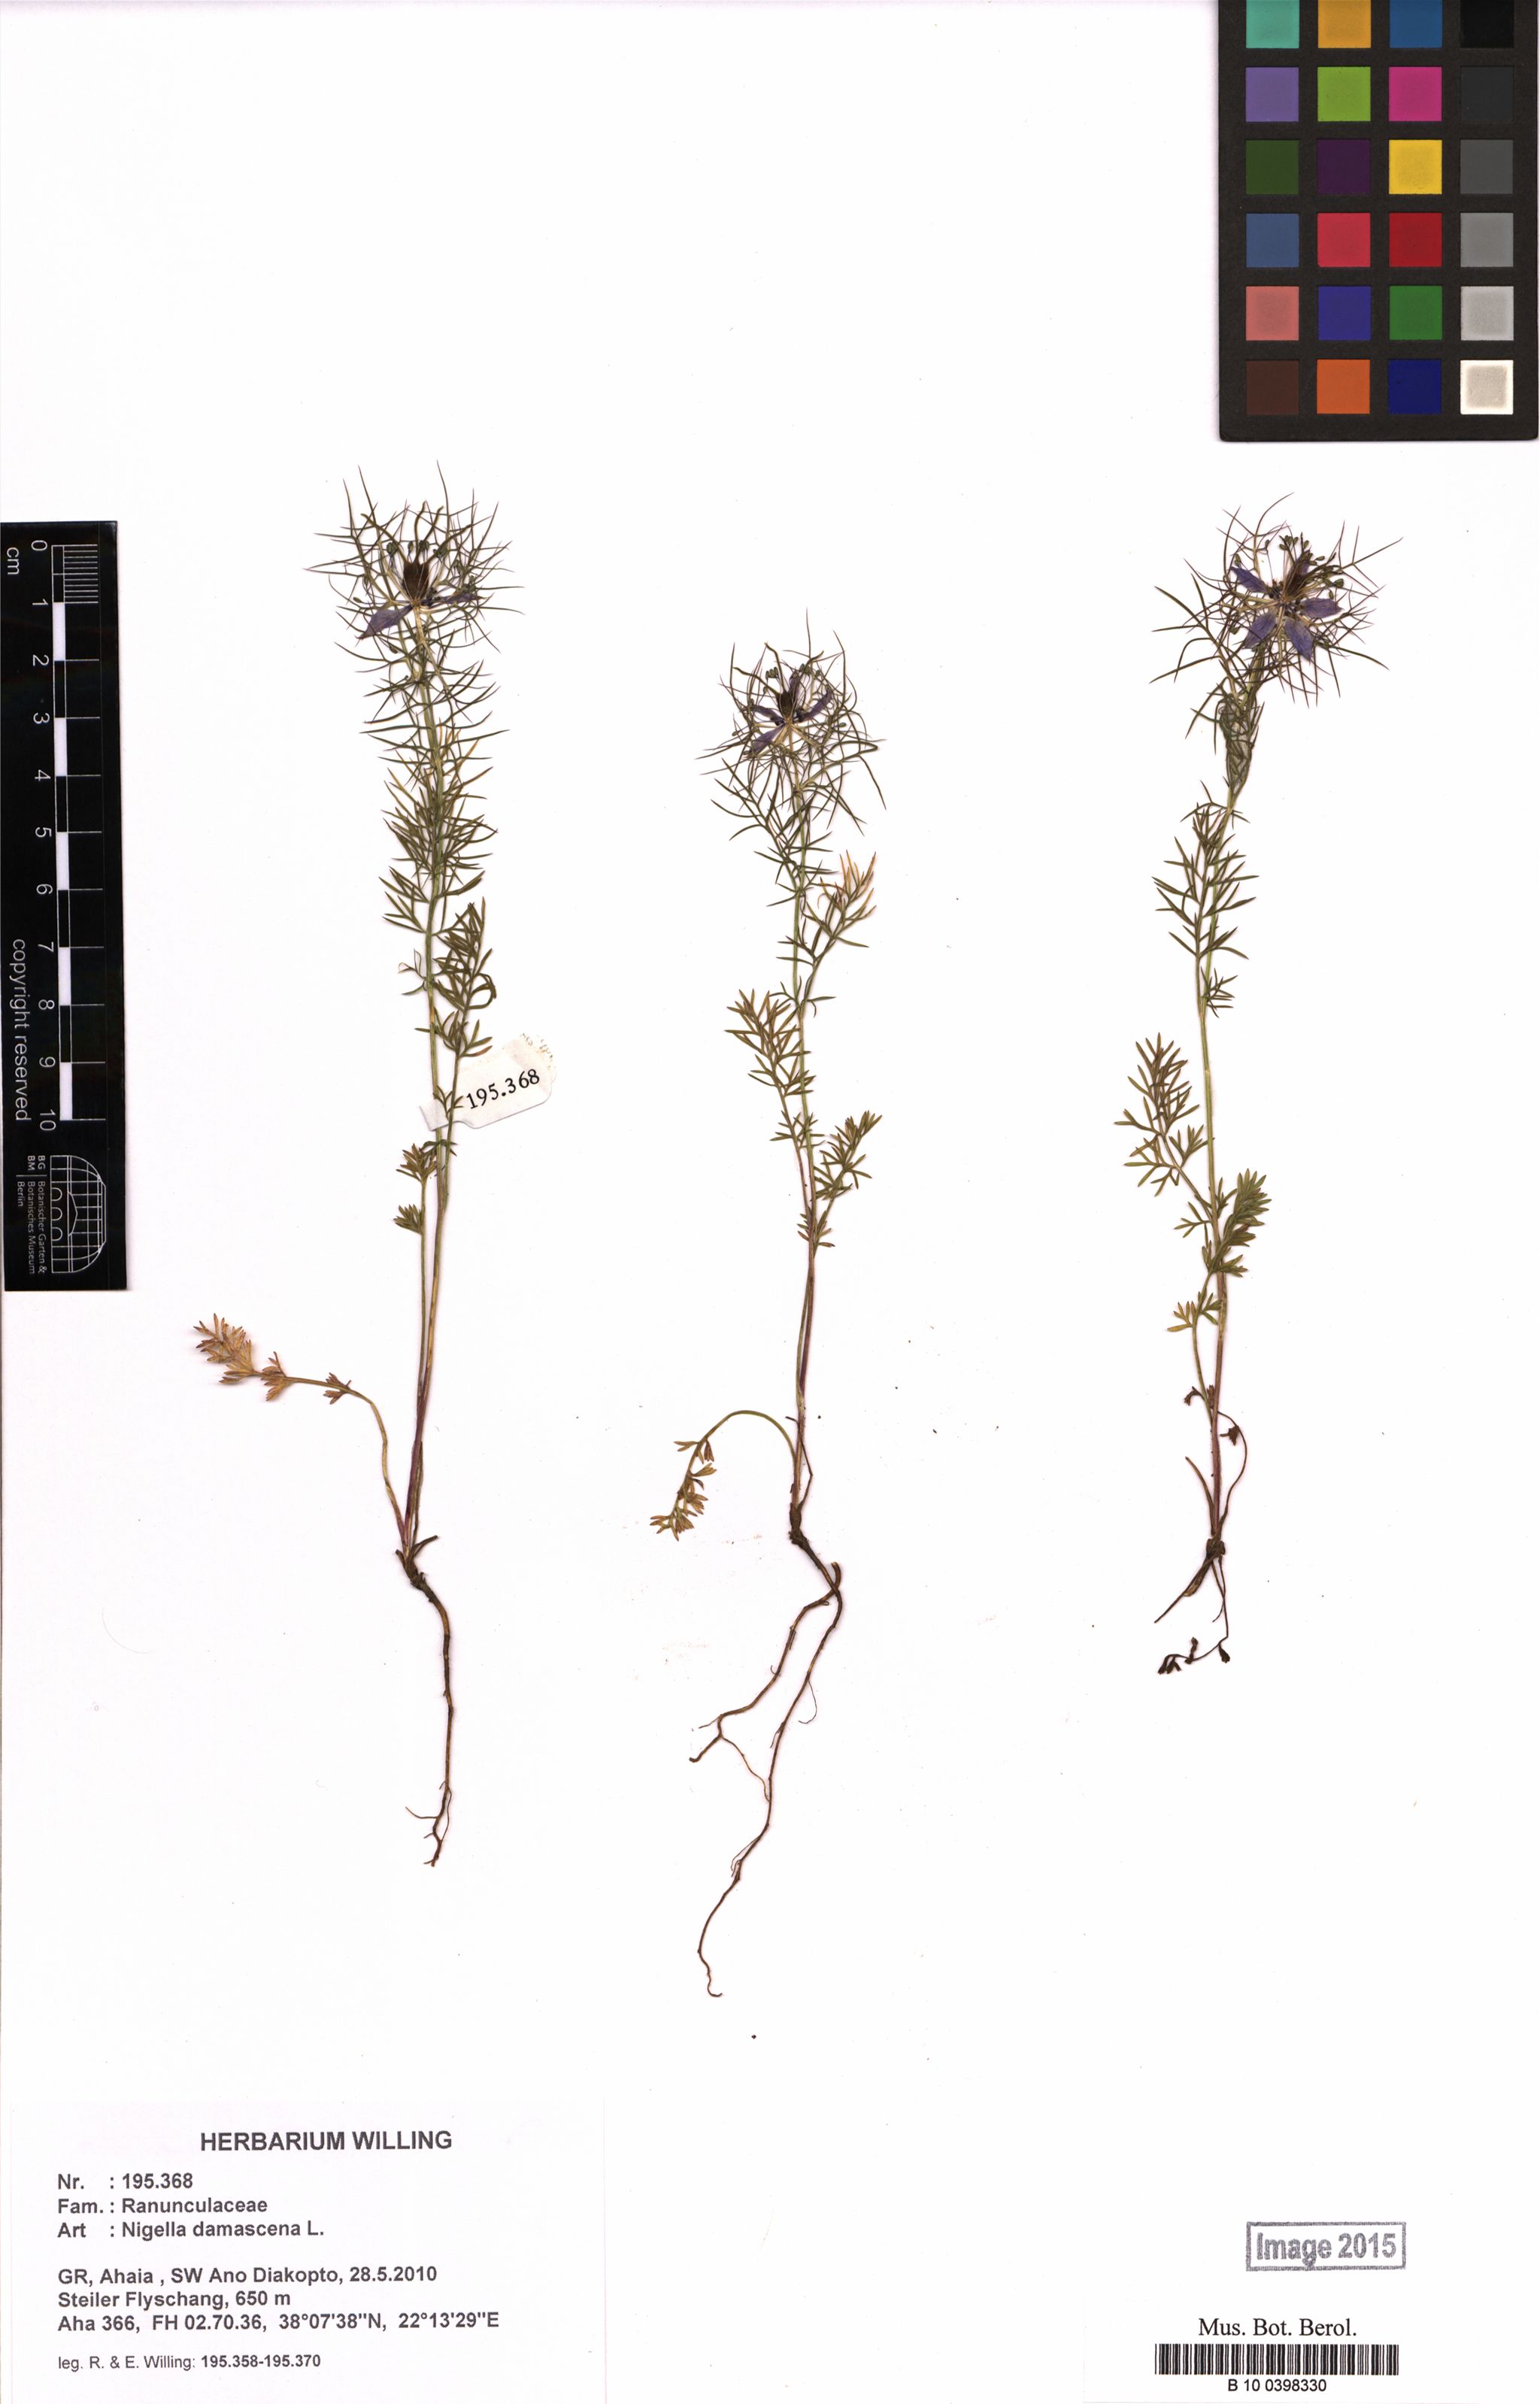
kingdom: Plantae
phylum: Tracheophyta
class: Magnoliopsida
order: Ranunculales
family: Ranunculaceae
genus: Nigella
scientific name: Nigella damascena
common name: Love-in-a-mist
